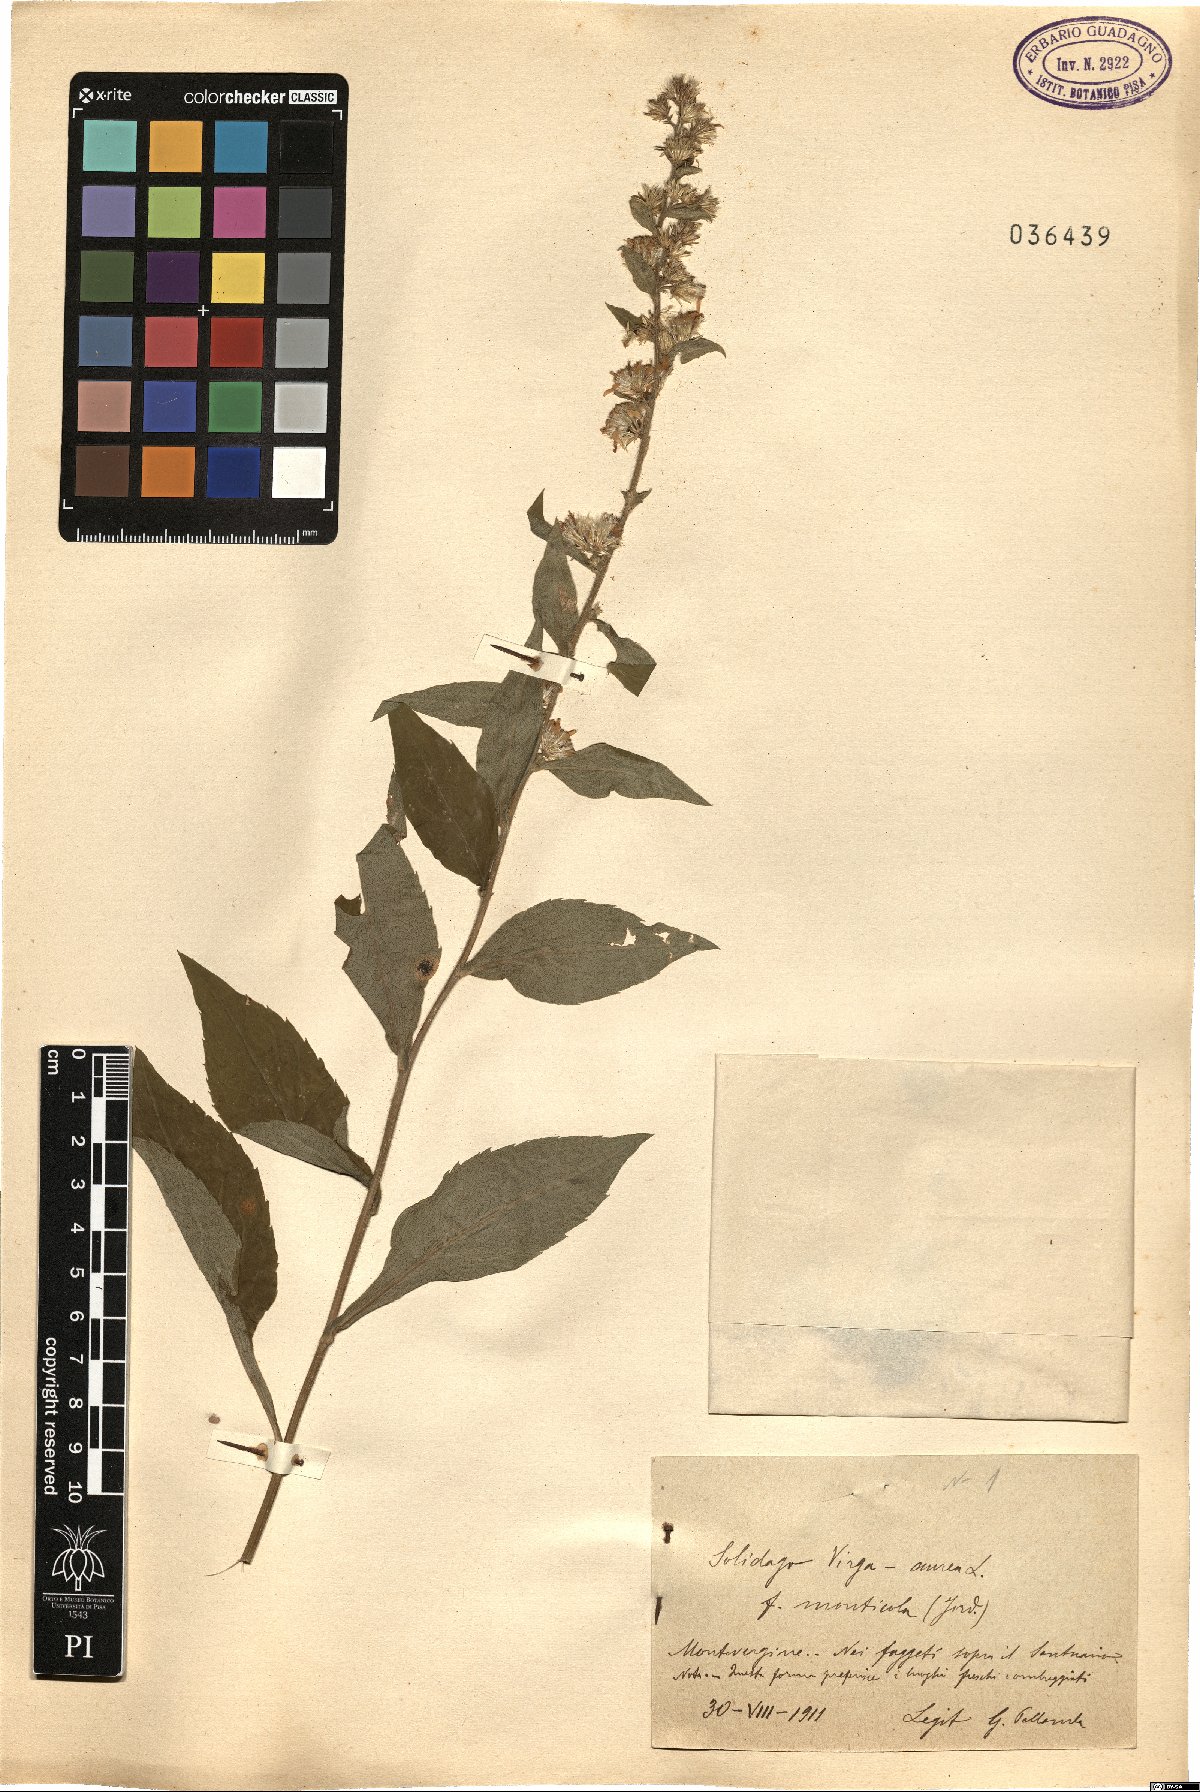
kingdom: Plantae
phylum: Tracheophyta
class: Magnoliopsida
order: Asterales
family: Asteraceae
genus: Solidago
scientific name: Solidago virgaurea
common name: Goldenrod
